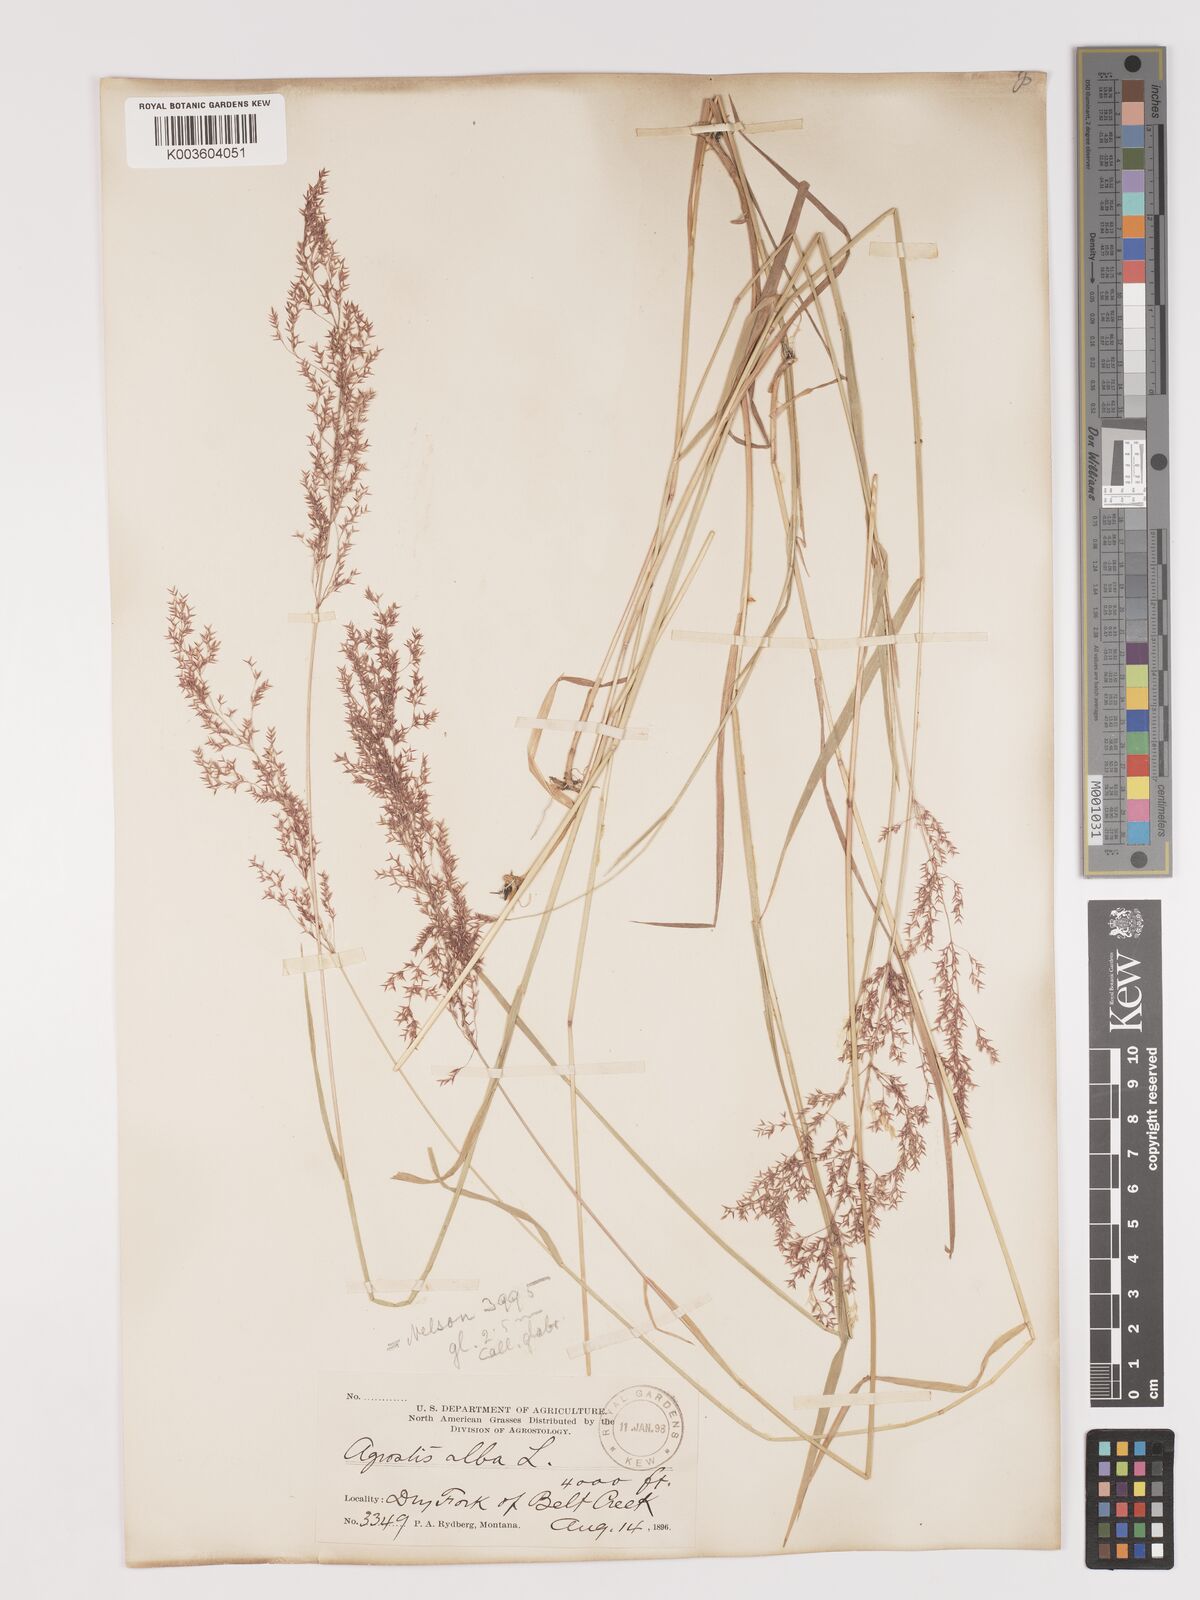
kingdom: Plantae
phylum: Tracheophyta
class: Liliopsida
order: Poales
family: Poaceae
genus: Agrostis
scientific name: Agrostis gigantea
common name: Black bent
